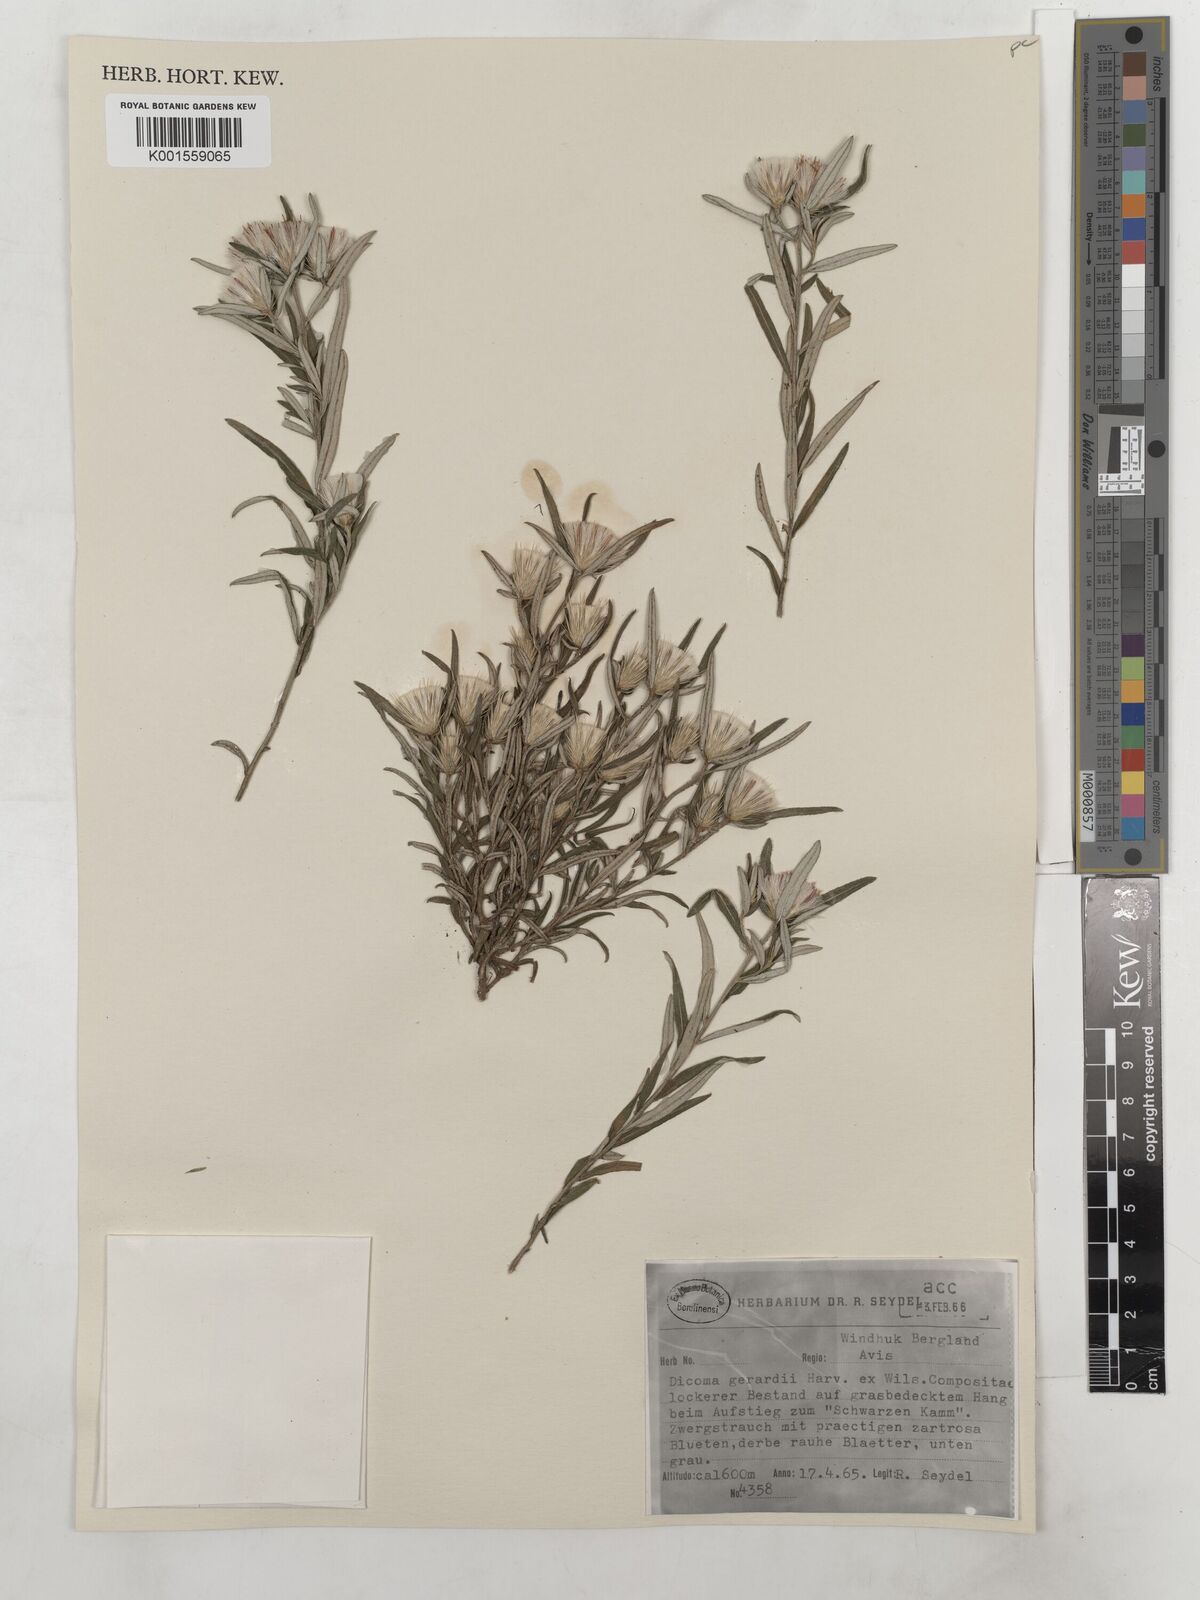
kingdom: Plantae
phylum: Tracheophyta
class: Magnoliopsida
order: Asterales
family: Asteraceae
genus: Dicoma
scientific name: Dicoma anomala
